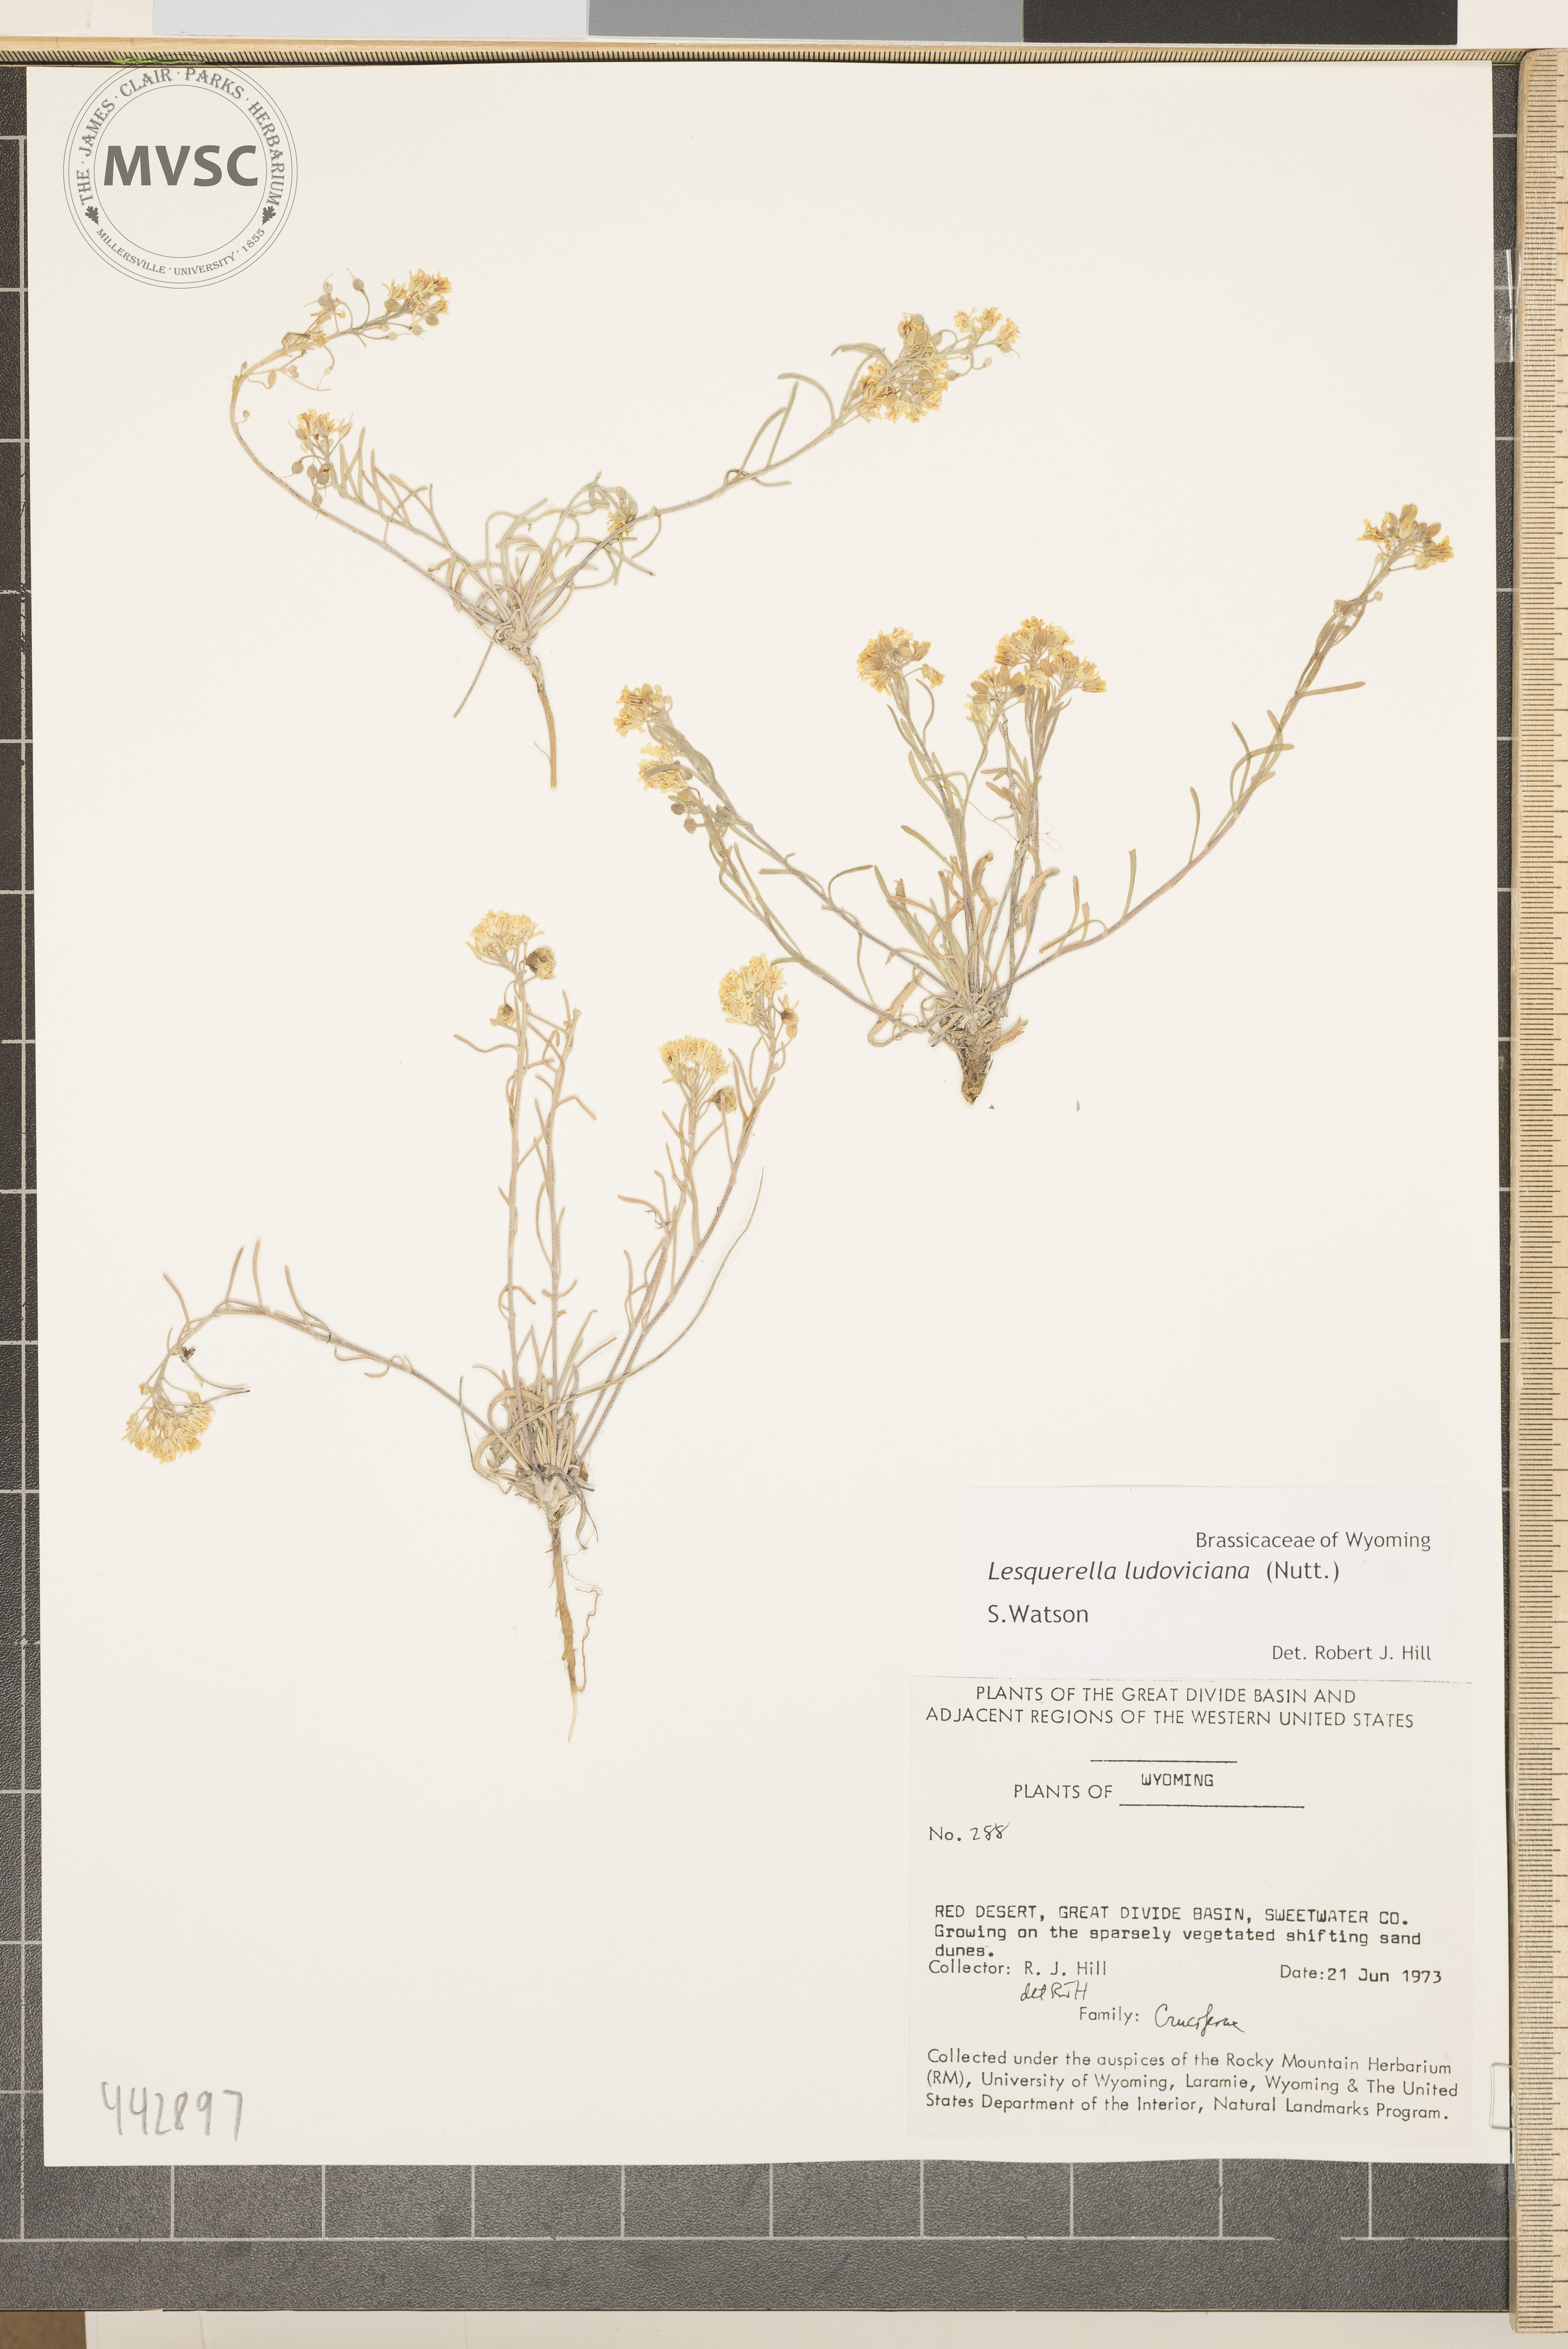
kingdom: Plantae
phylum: Tracheophyta
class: Magnoliopsida
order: Brassicales
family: Brassicaceae
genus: Physaria
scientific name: Physaria ludoviciana
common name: Foothill bladderpod
